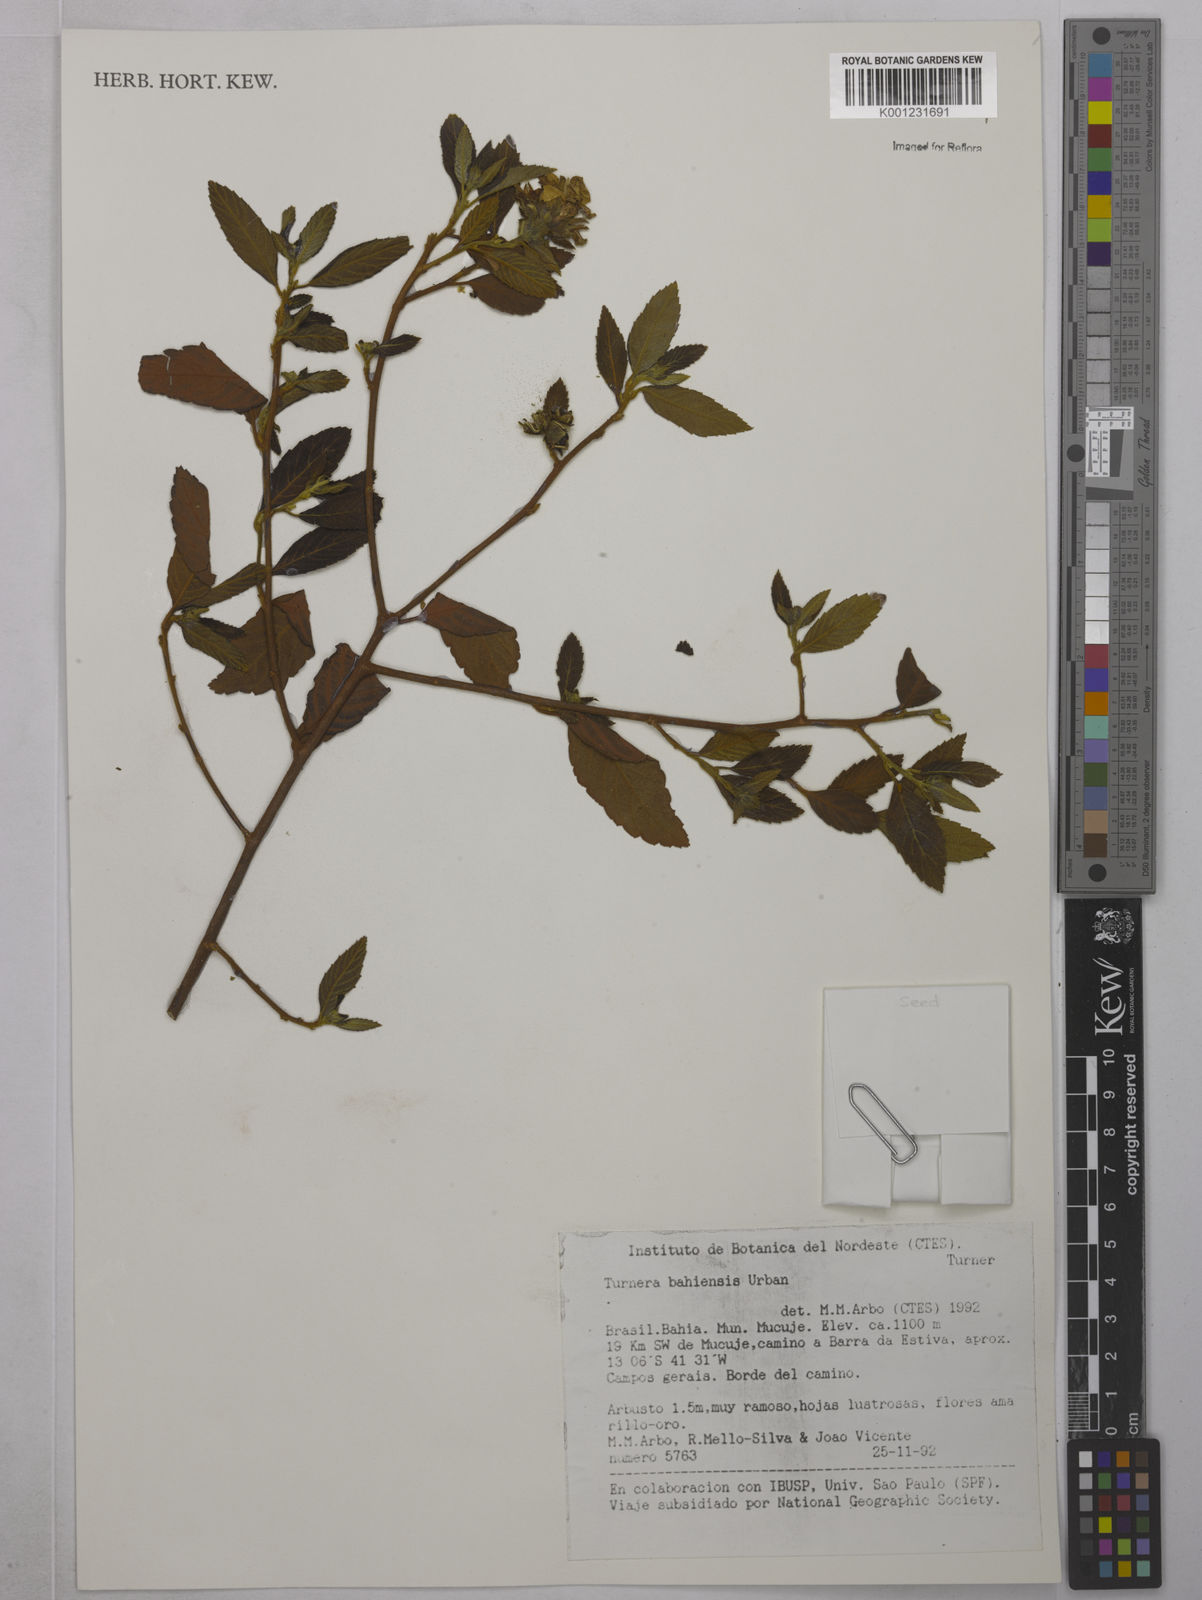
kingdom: Plantae
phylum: Tracheophyta
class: Magnoliopsida
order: Malpighiales
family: Turneraceae
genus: Turnera
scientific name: Turnera bahiensis
